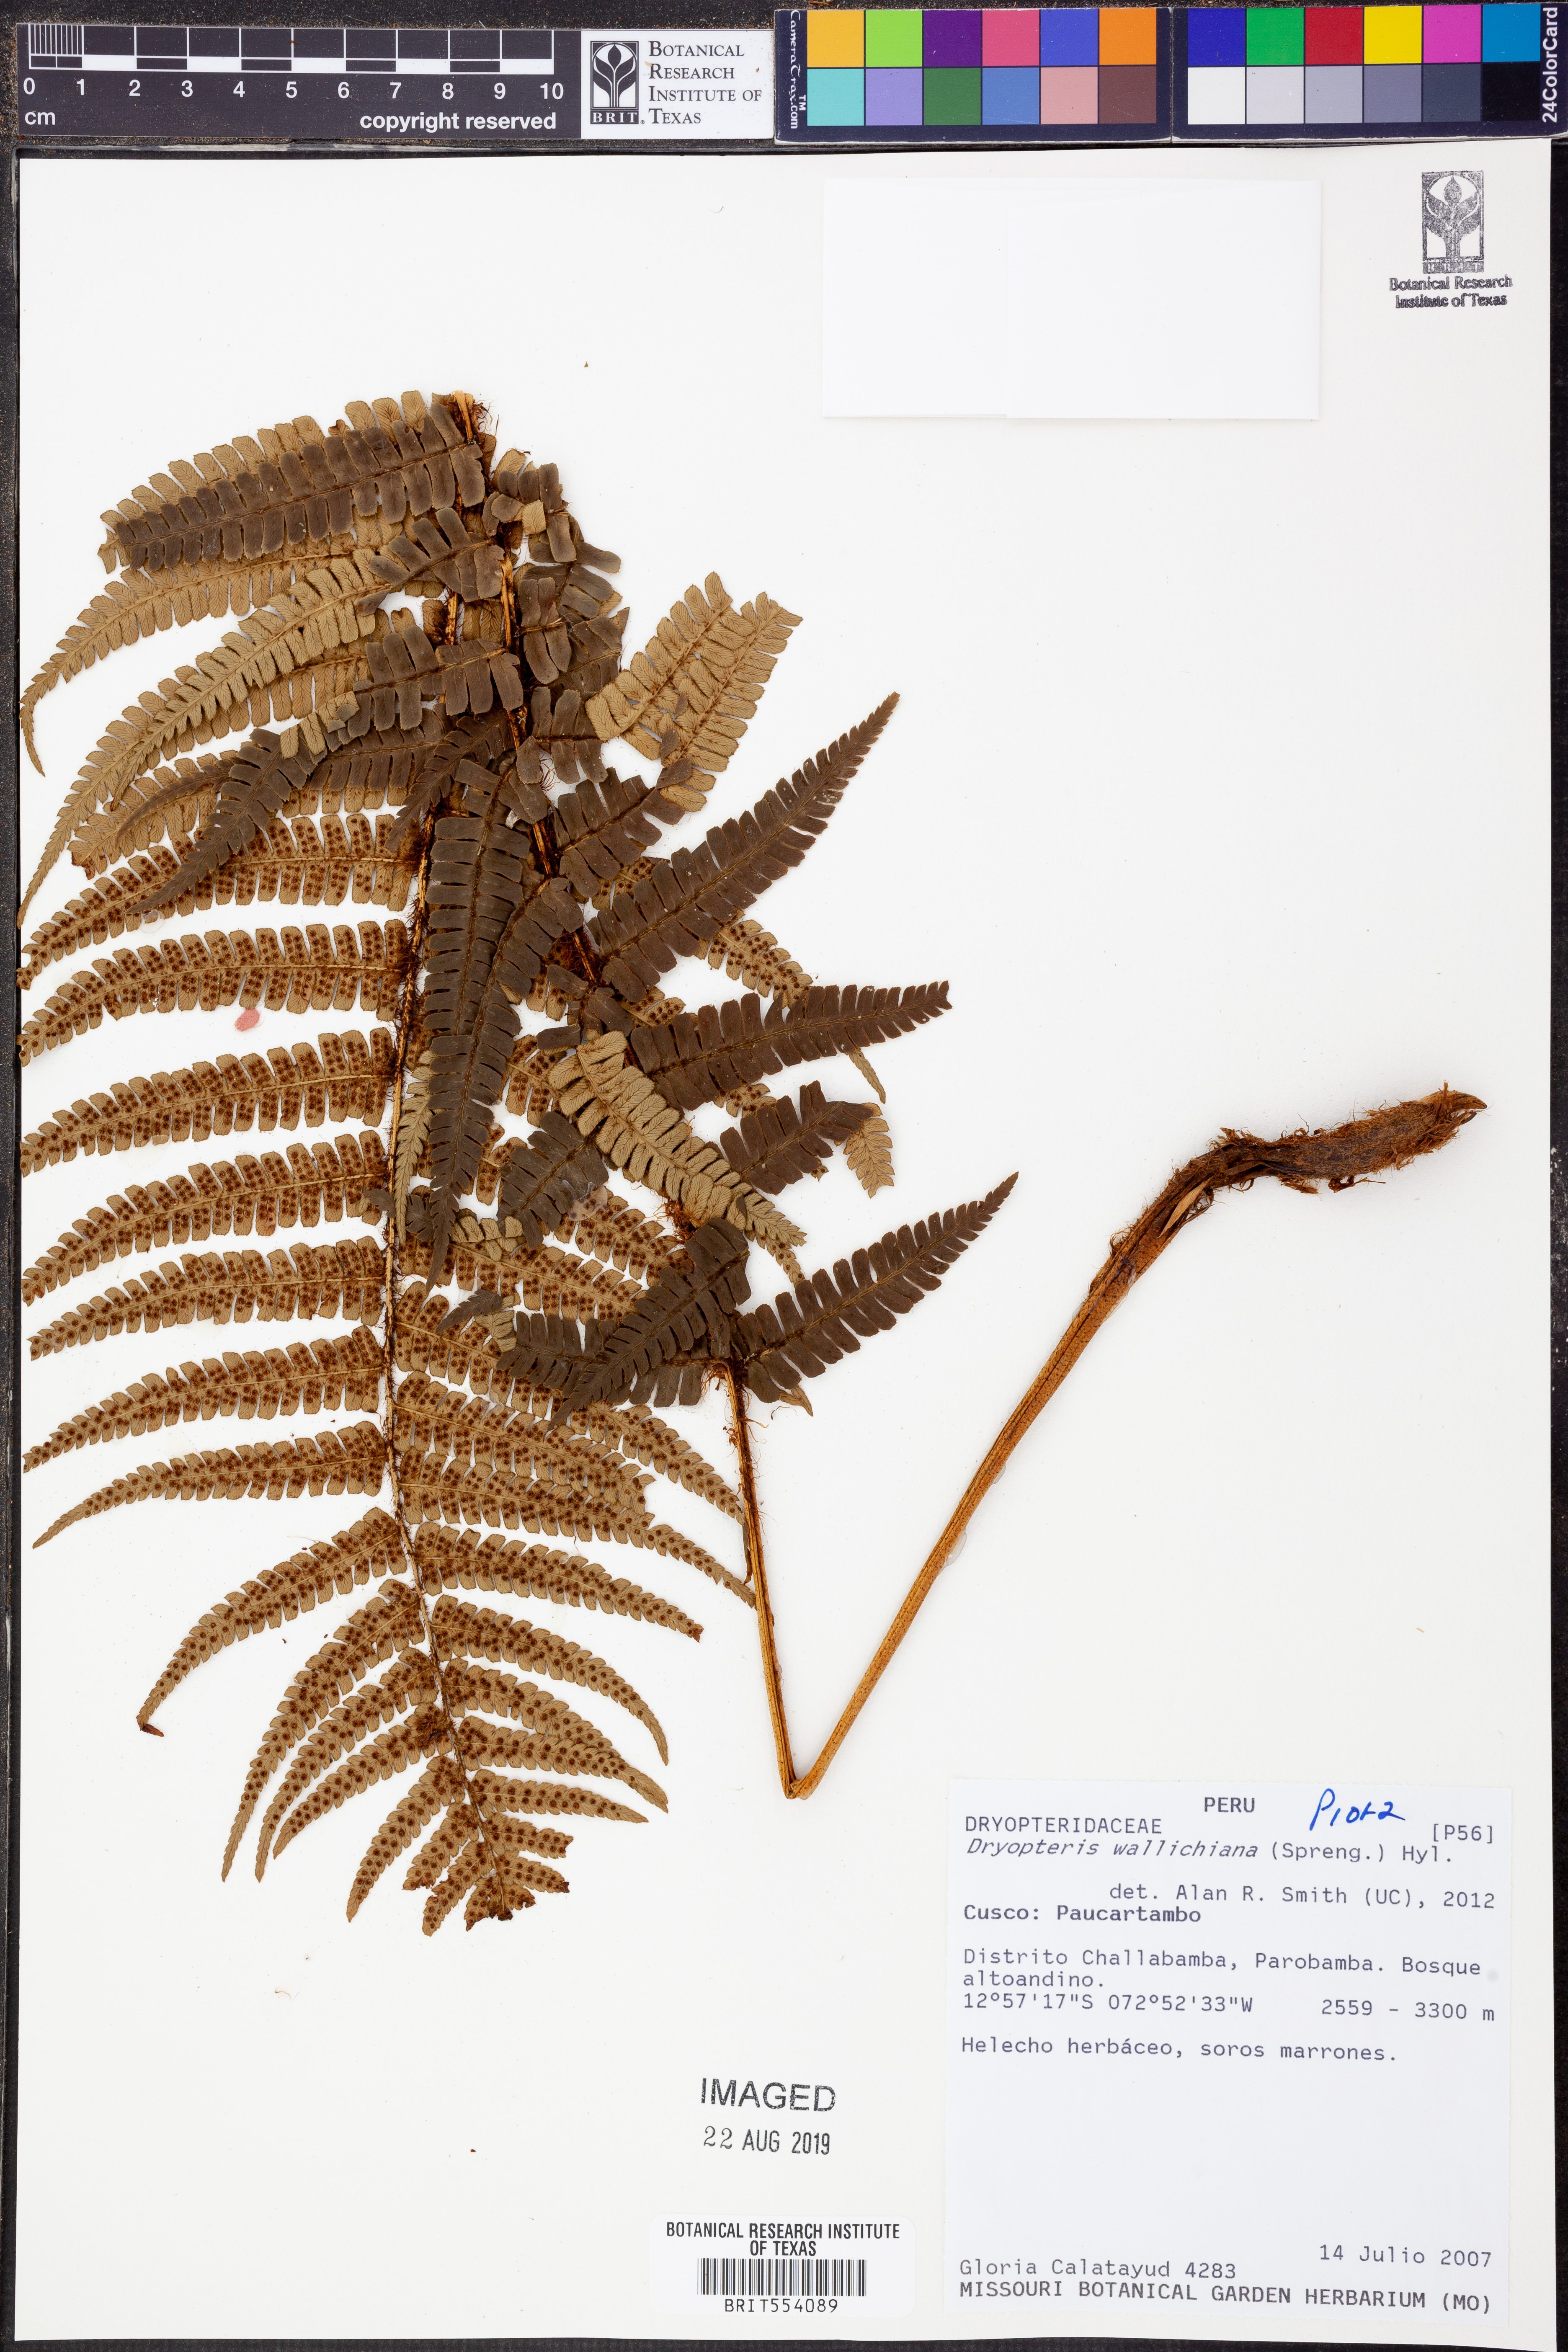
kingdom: Plantae
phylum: Tracheophyta
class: Polypodiopsida
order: Polypodiales
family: Dryopteridaceae
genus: Dryopteris
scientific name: Dryopteris wallichiana
